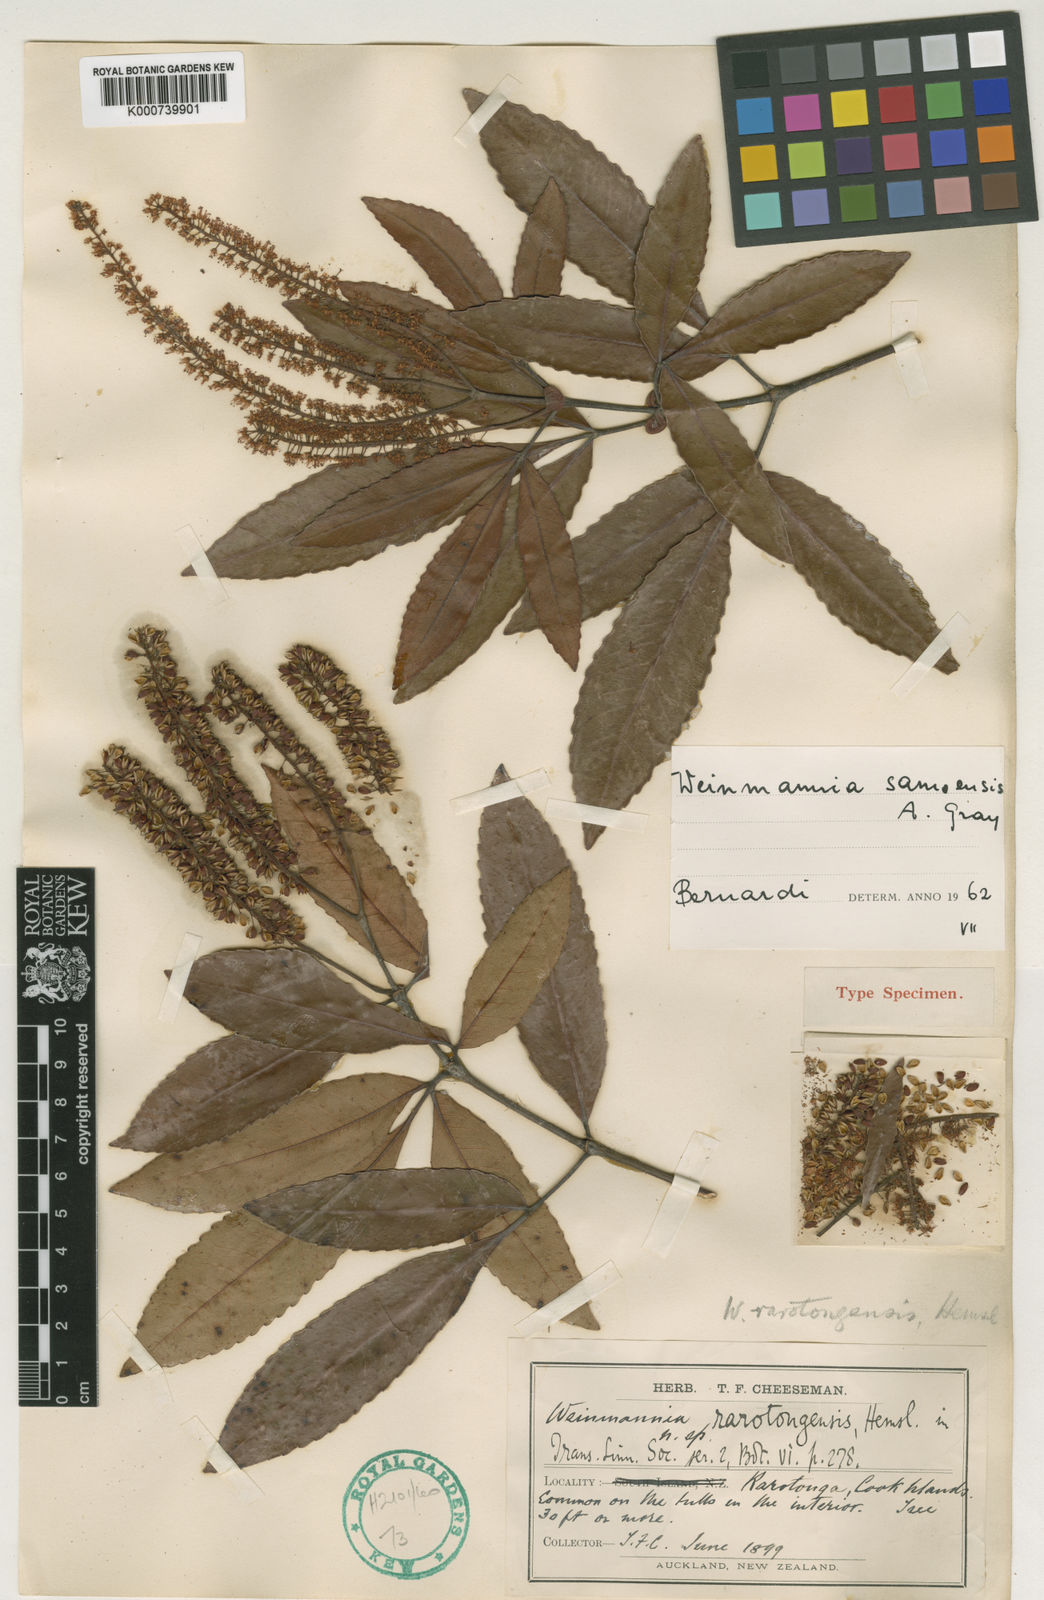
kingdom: Plantae
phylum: Tracheophyta
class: Magnoliopsida
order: Oxalidales
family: Cunoniaceae
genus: Pterophylla
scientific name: Pterophylla samoensis
